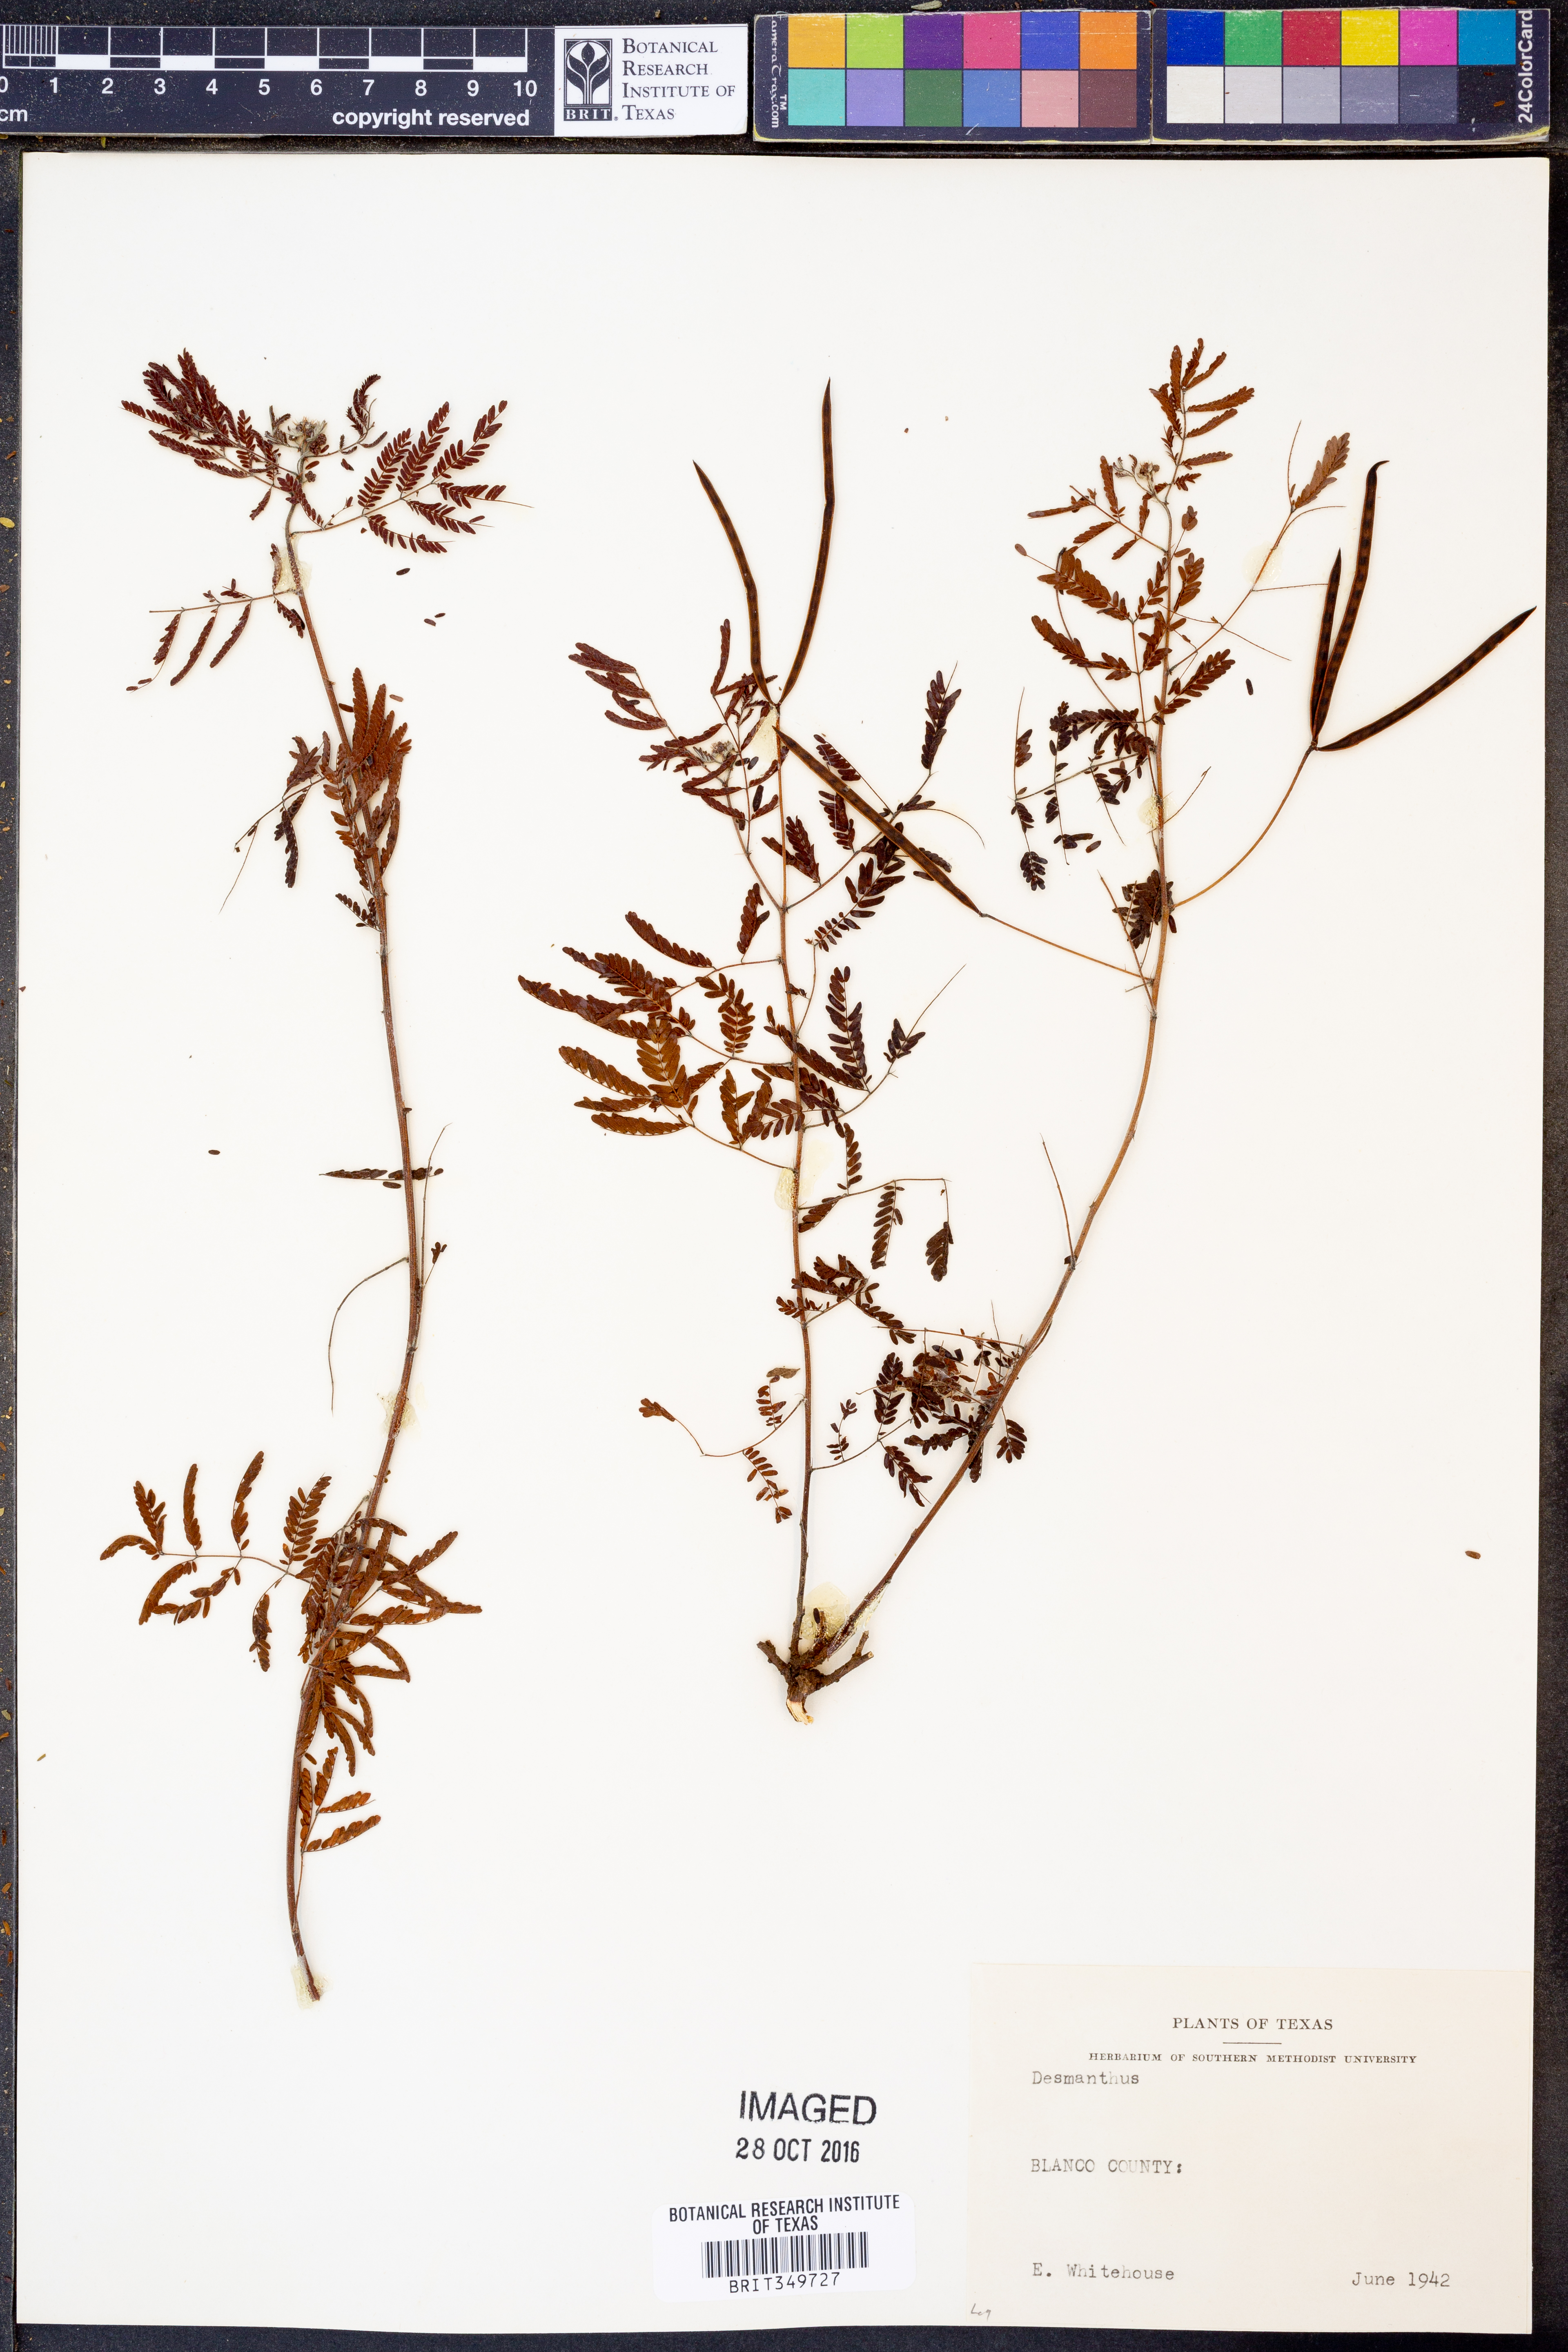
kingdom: Plantae
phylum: Tracheophyta
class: Magnoliopsida
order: Fabales
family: Fabaceae
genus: Desmanthus
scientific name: Desmanthus
